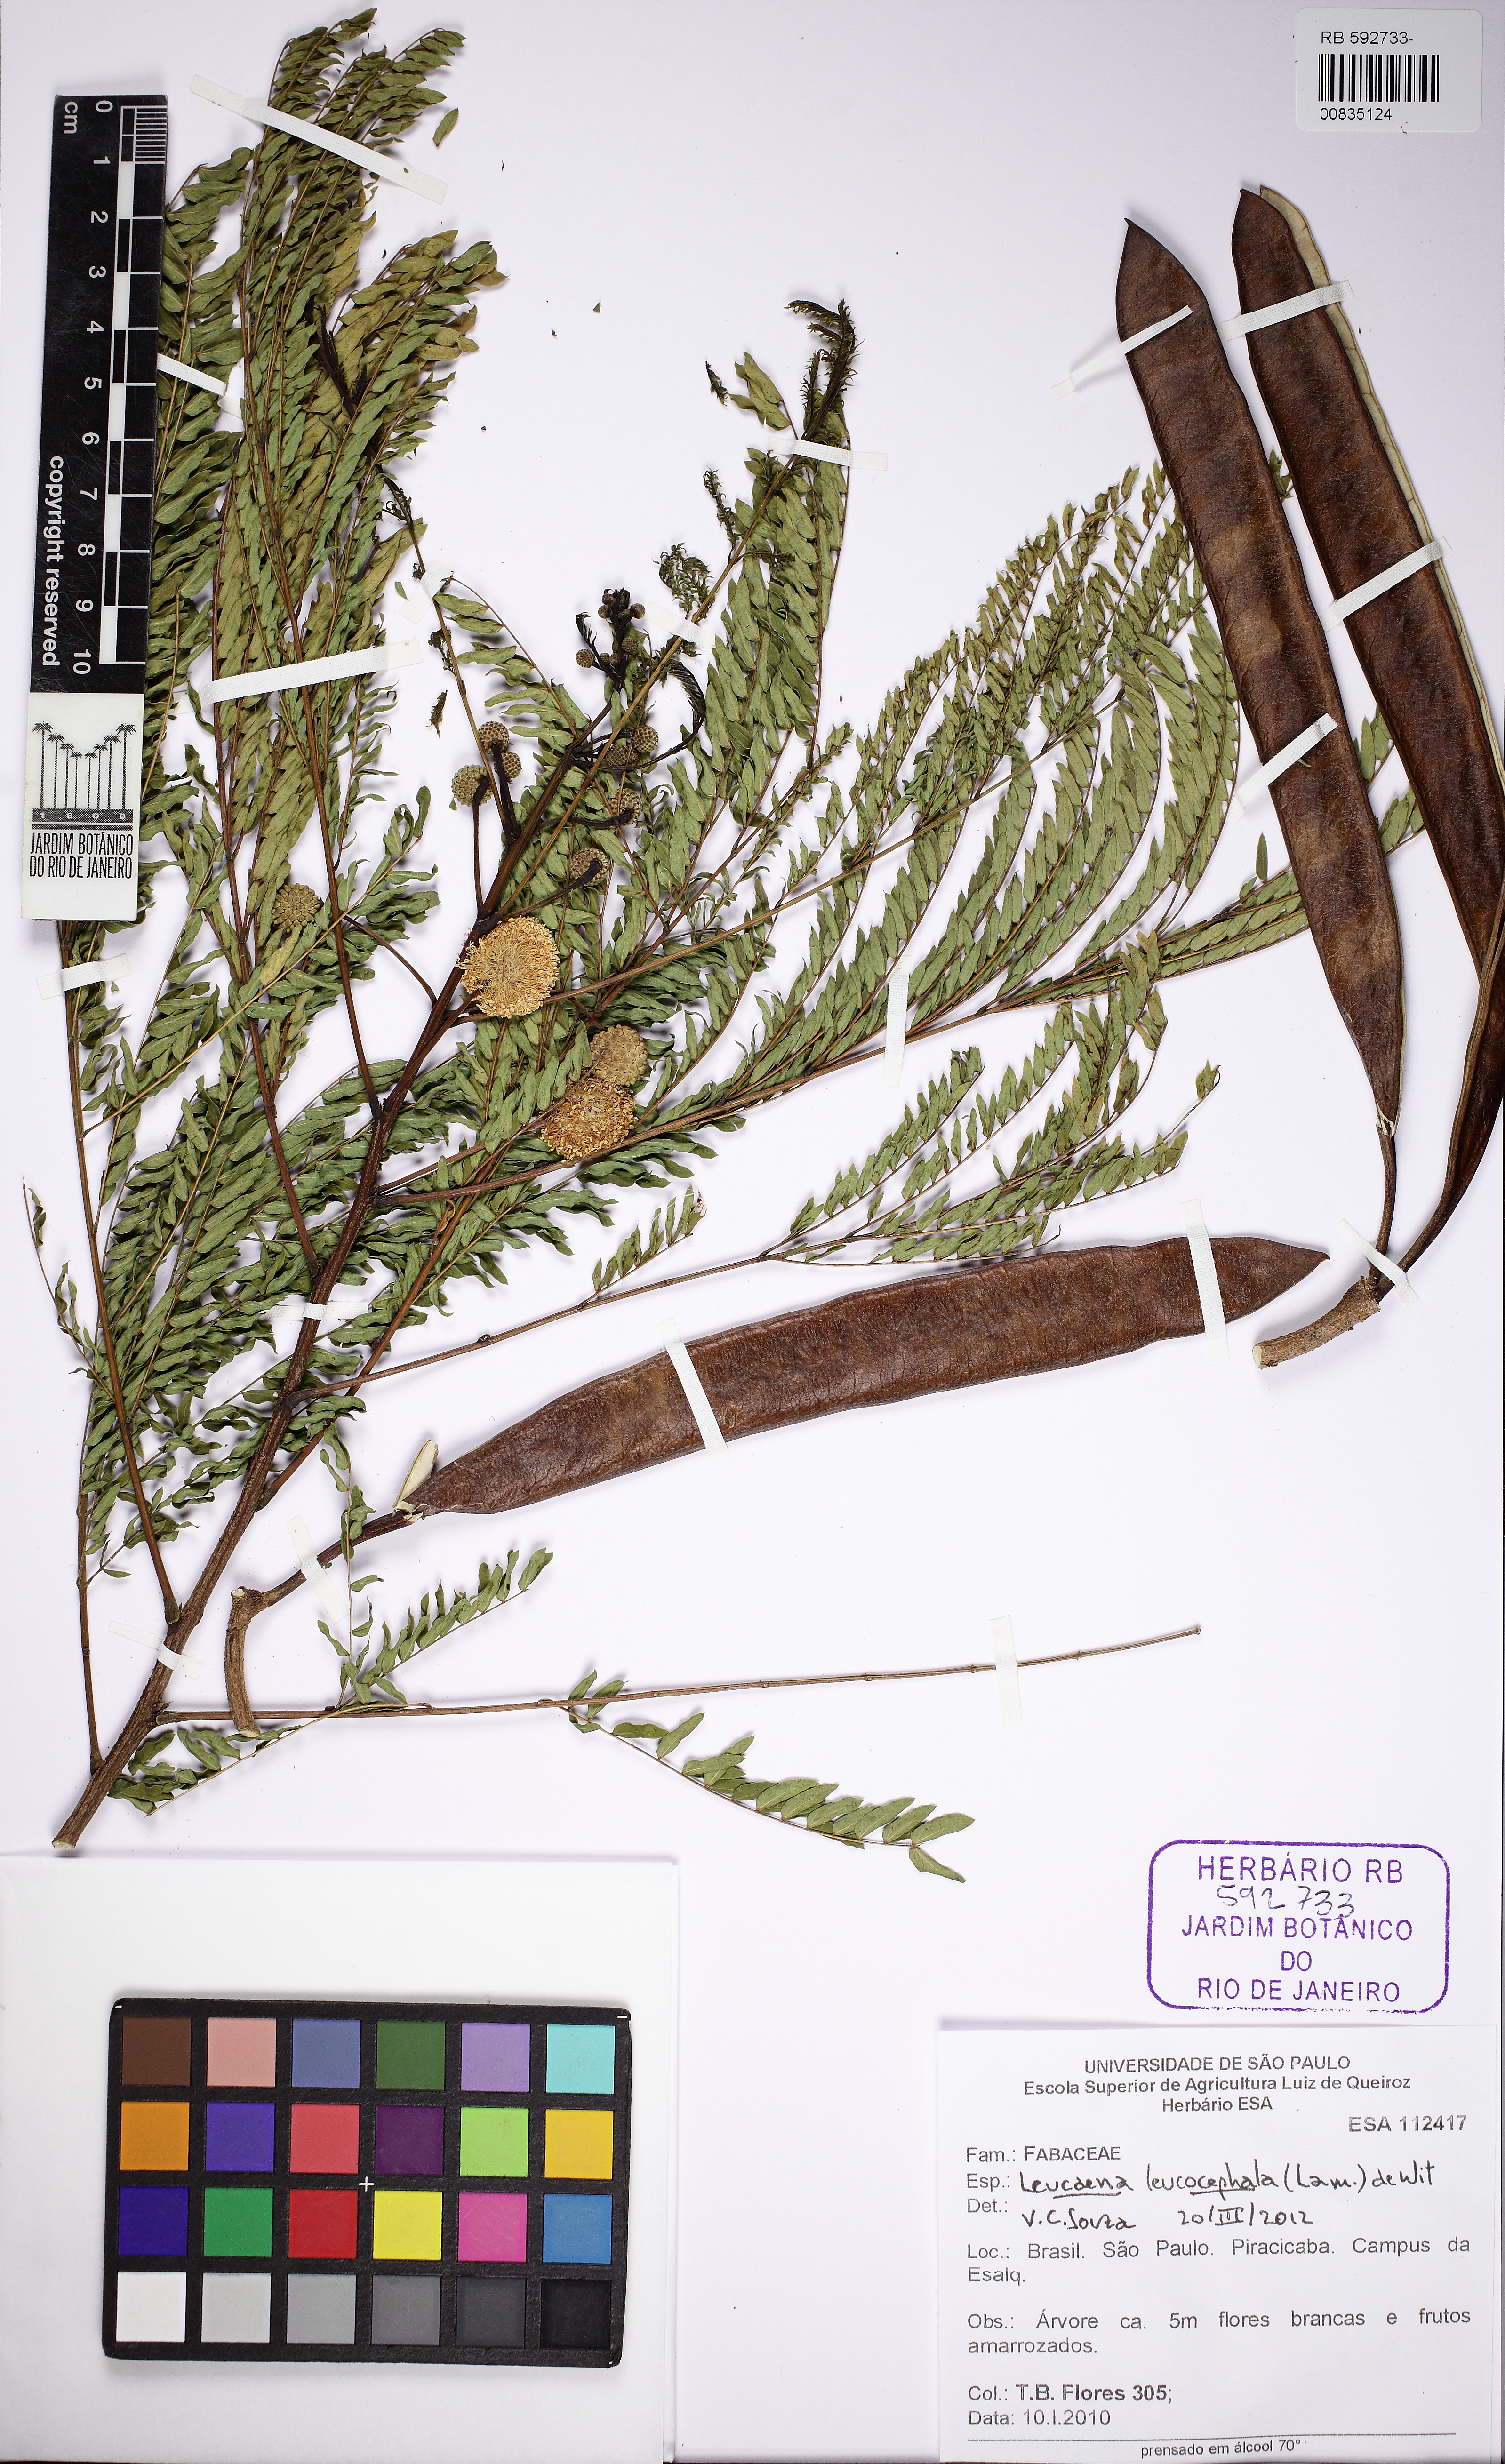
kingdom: Plantae
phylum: Tracheophyta
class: Magnoliopsida
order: Fabales
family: Fabaceae
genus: Leucaena
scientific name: Leucaena leucocephala
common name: White leadtree
